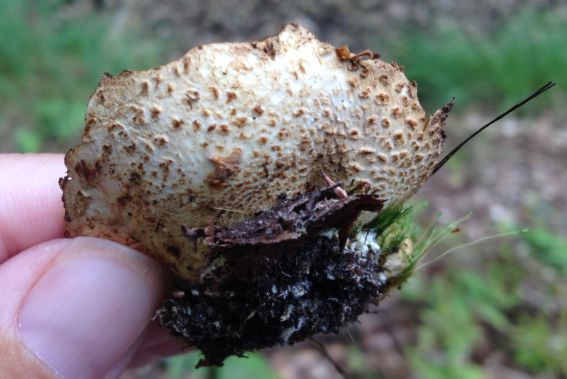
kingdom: Fungi
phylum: Basidiomycota
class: Agaricomycetes
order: Boletales
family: Sclerodermataceae
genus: Scleroderma
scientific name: Scleroderma citrinum
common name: almindelig bruskbold
